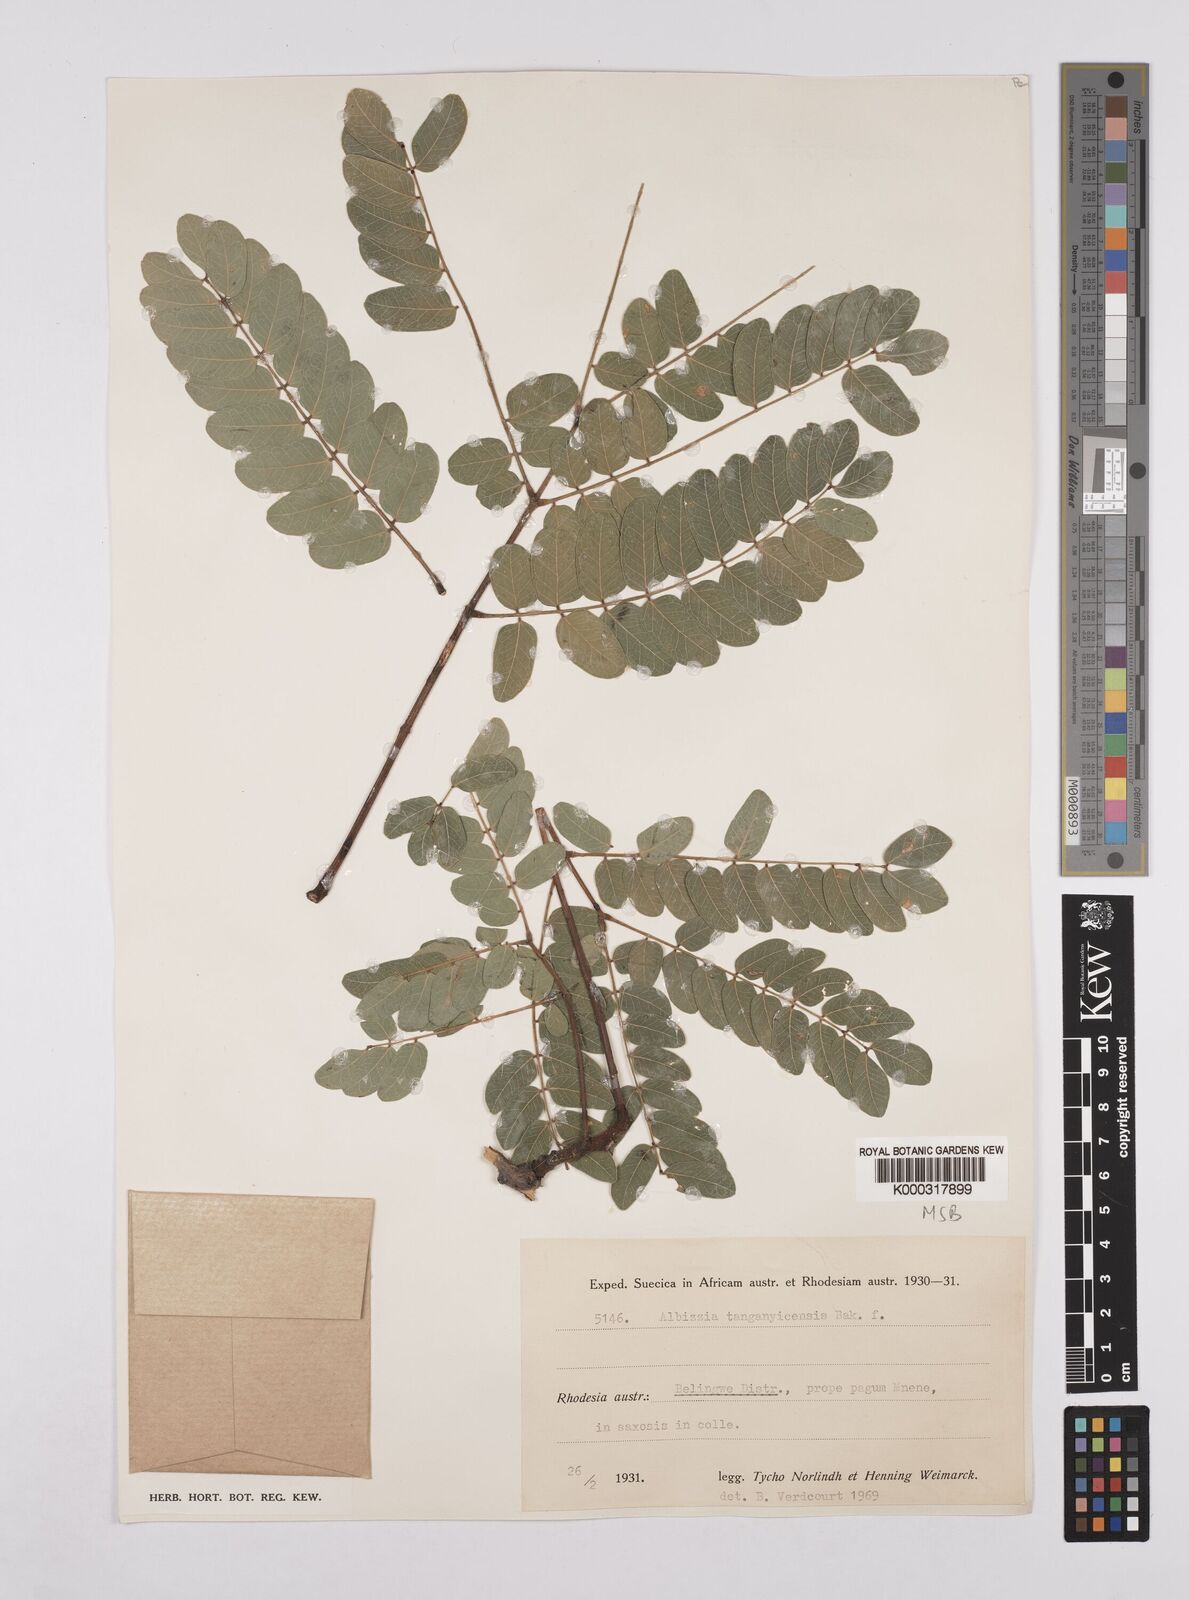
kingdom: Plantae
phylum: Tracheophyta
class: Magnoliopsida
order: Fabales
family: Fabaceae
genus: Albizia
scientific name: Albizia tanganyicensis
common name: Paperbark false thorn
